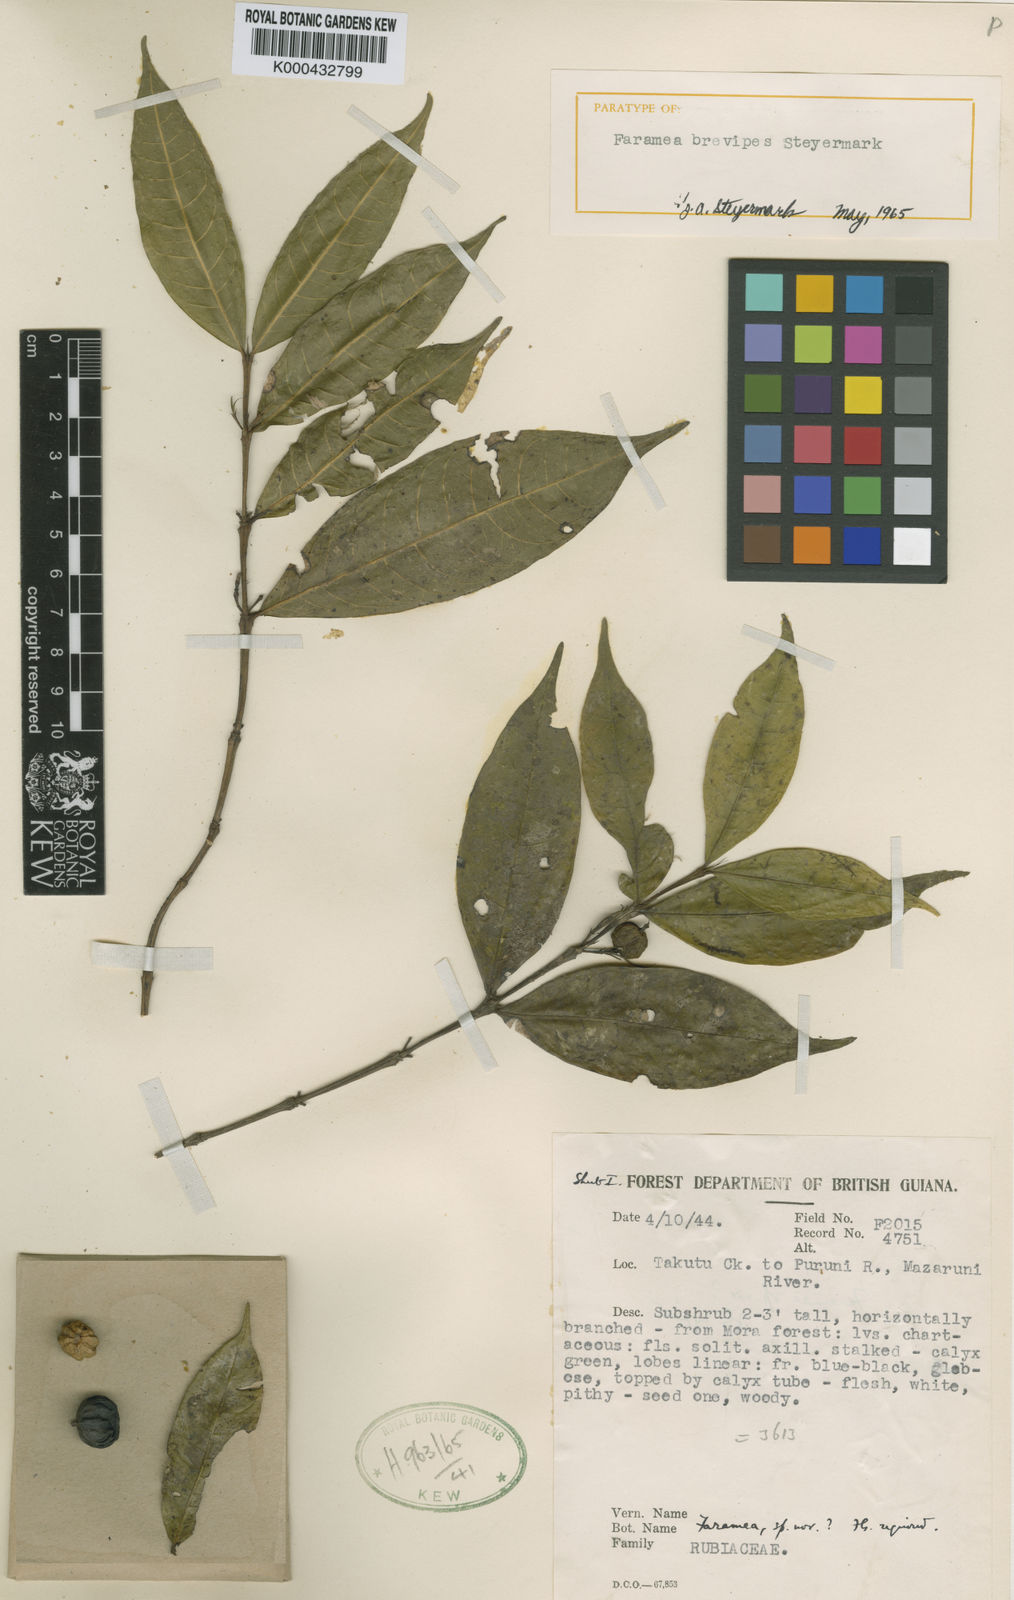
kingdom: Plantae
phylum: Tracheophyta
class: Magnoliopsida
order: Gentianales
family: Rubiaceae
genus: Faramea
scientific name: Faramea brevipes
